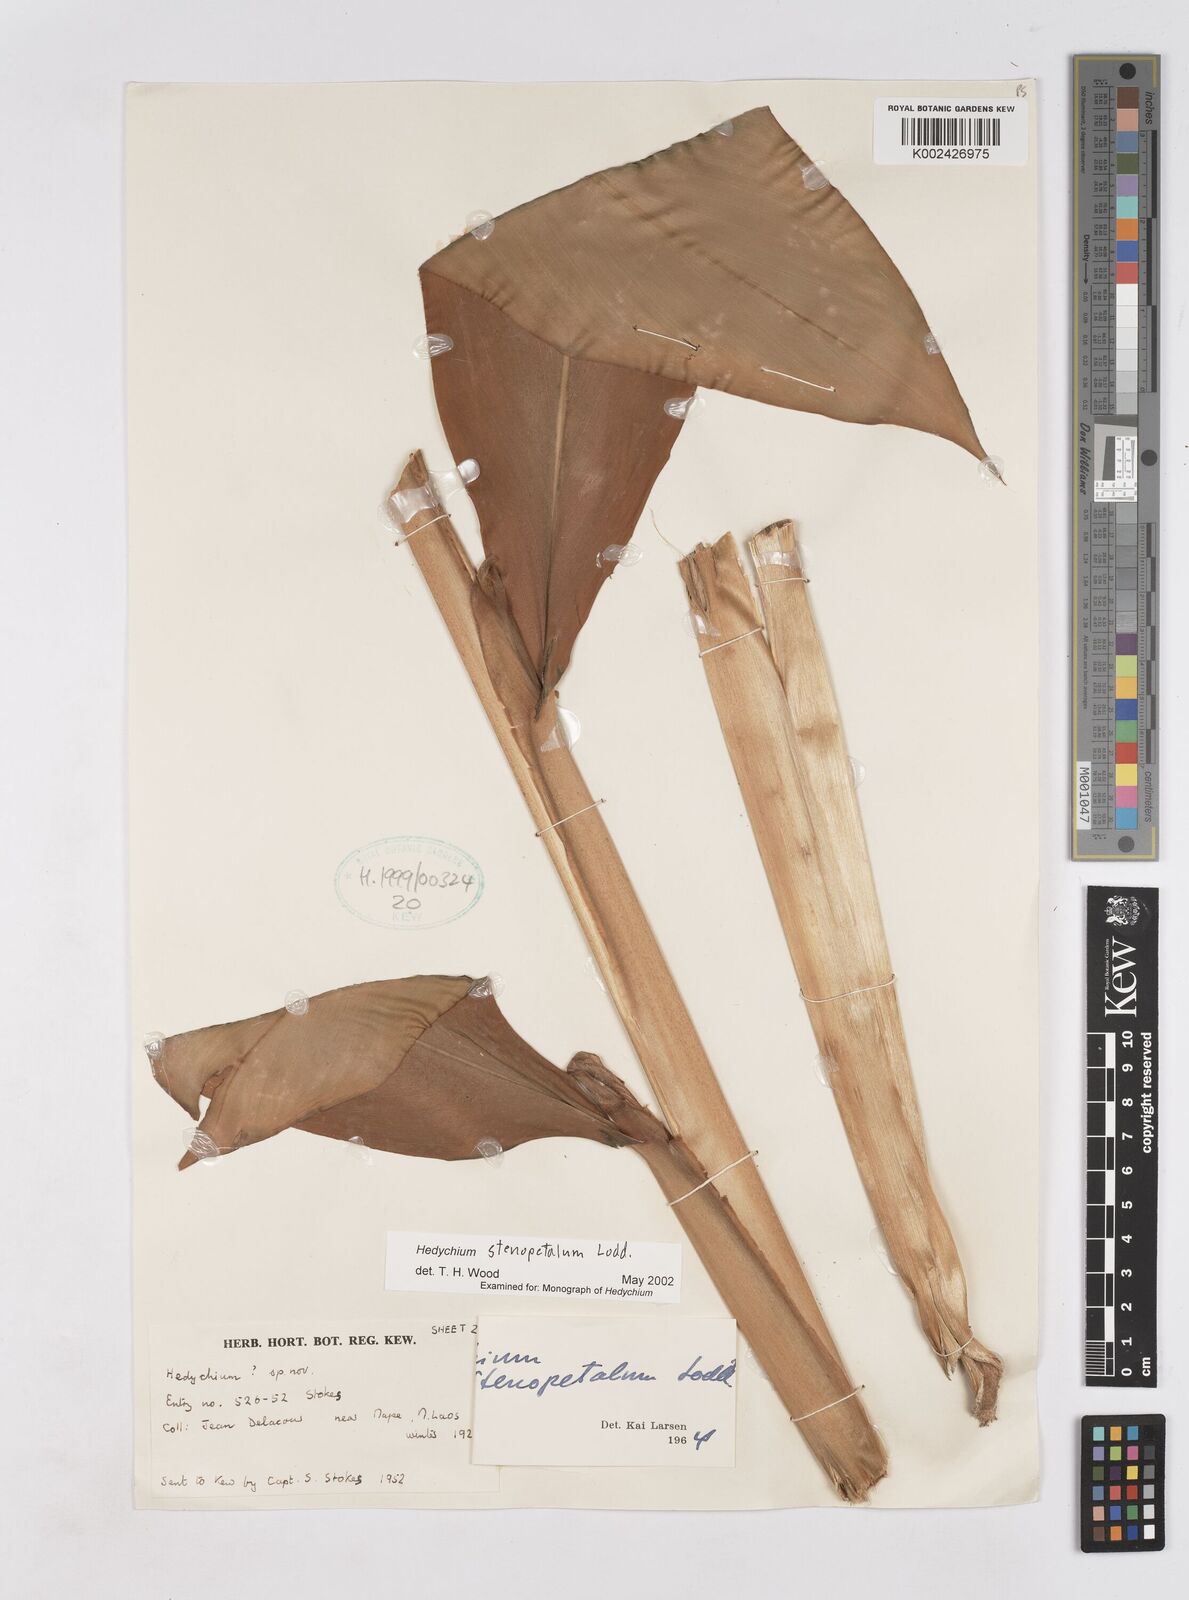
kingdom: Plantae
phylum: Tracheophyta
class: Liliopsida
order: Zingiberales
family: Zingiberaceae
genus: Hedychium
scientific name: Hedychium stenopetalum
